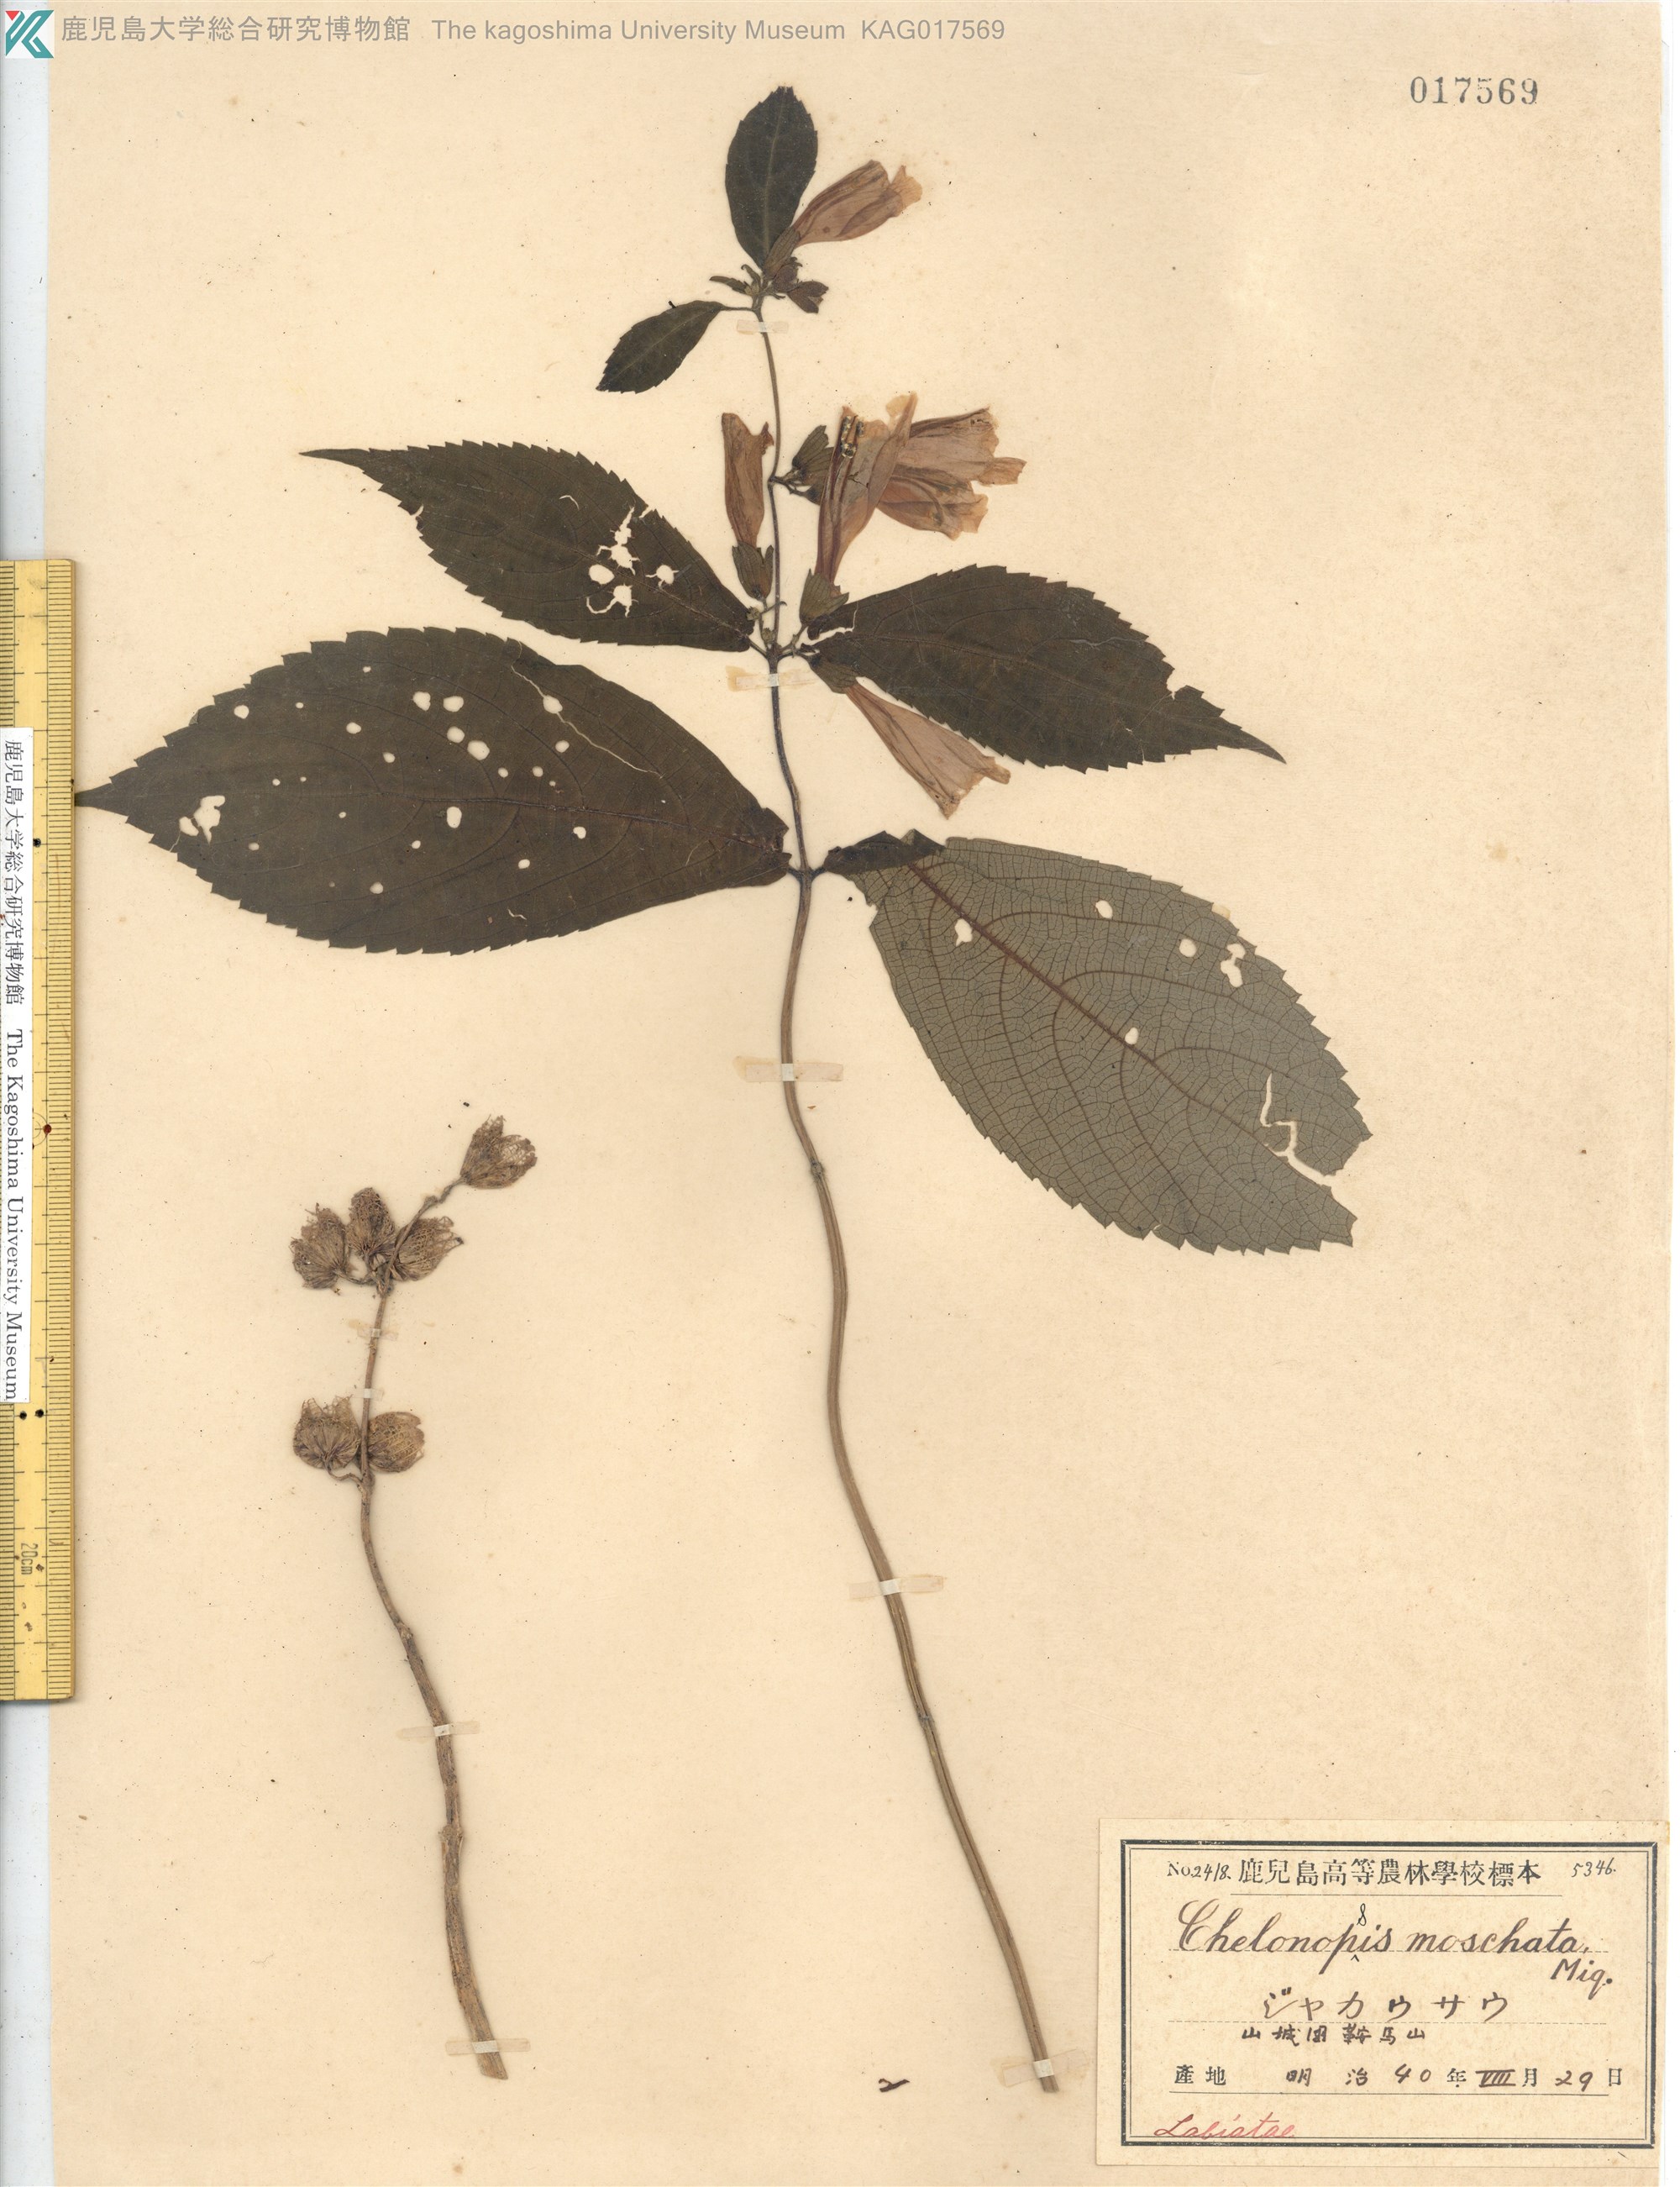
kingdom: Plantae
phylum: Tracheophyta
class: Magnoliopsida
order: Lamiales
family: Lamiaceae
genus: Chelonopsis
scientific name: Chelonopsis moschata
